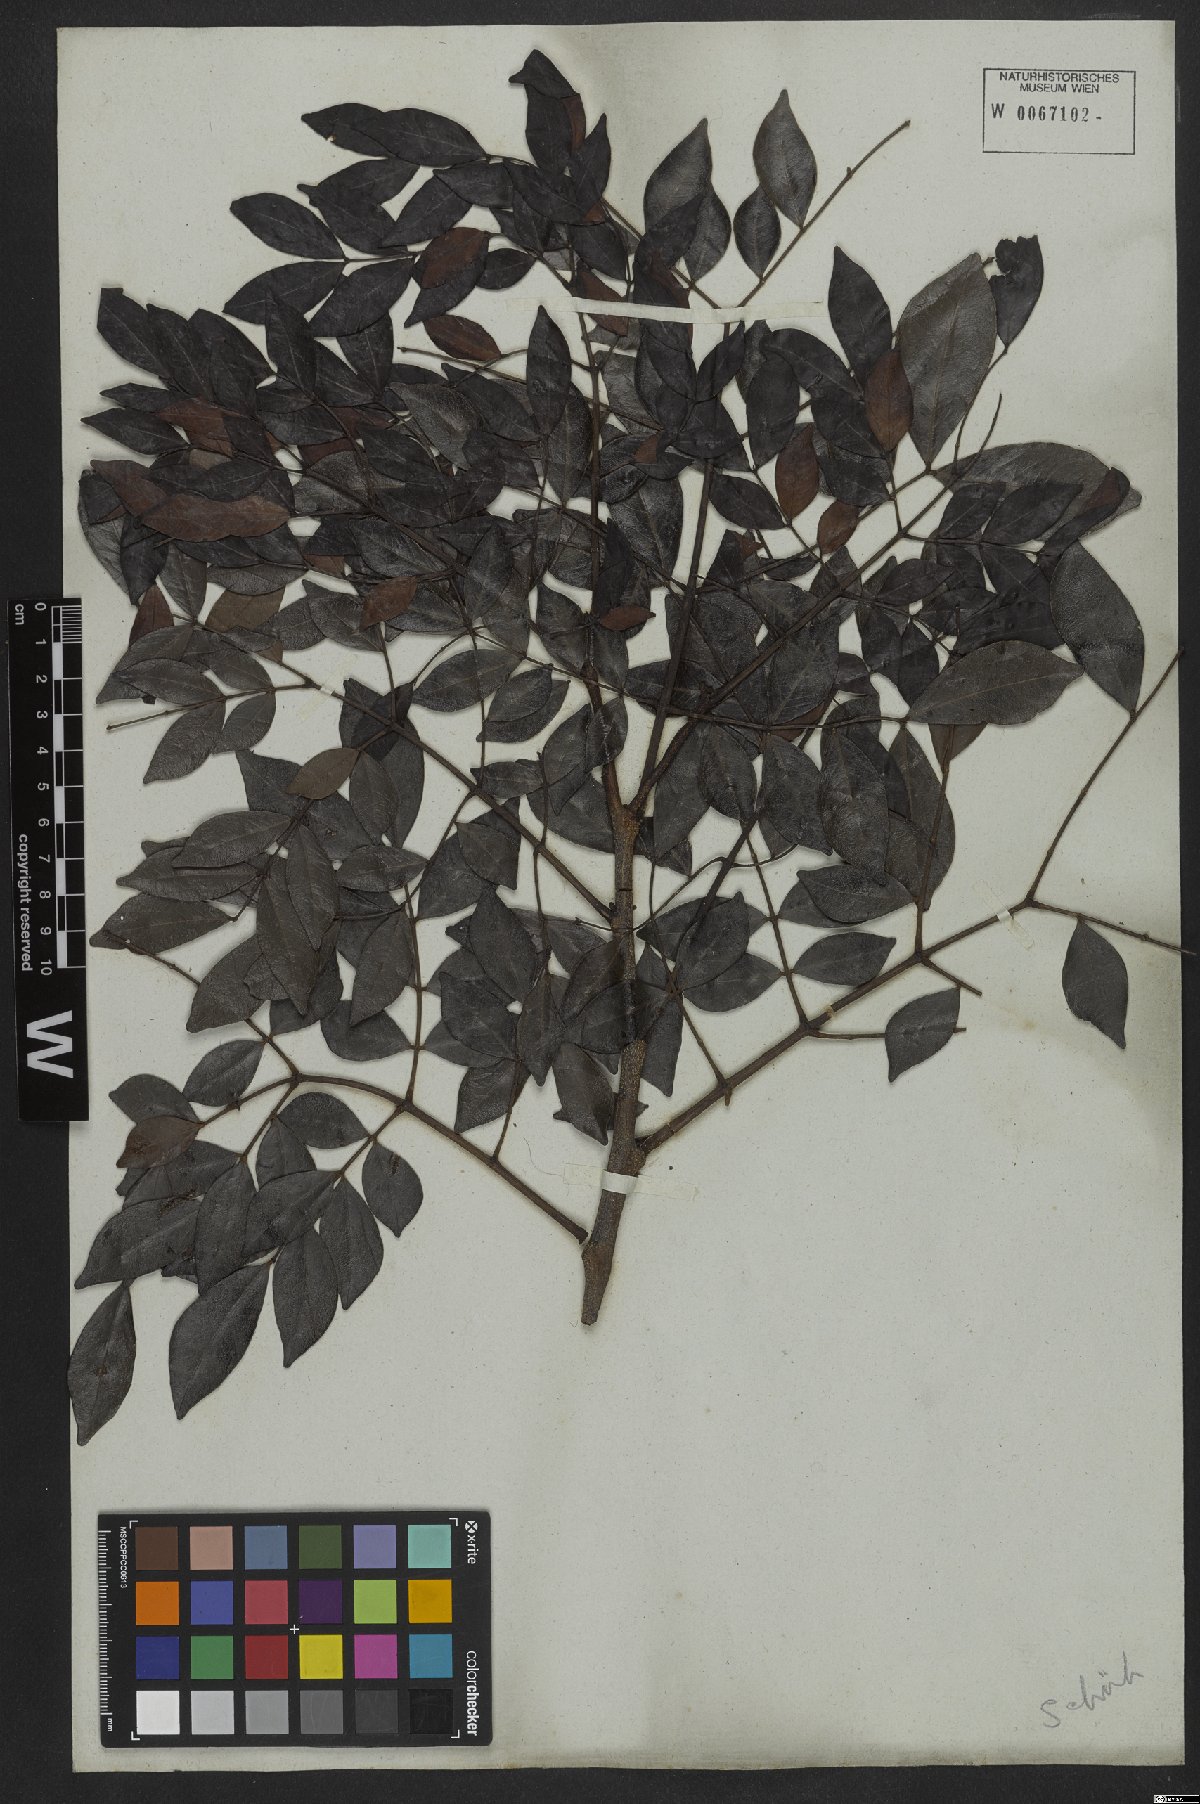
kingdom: Plantae
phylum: Tracheophyta
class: Magnoliopsida
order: Fabales
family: Fabaceae
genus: Abarema
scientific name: Abarema cochliacarpos
